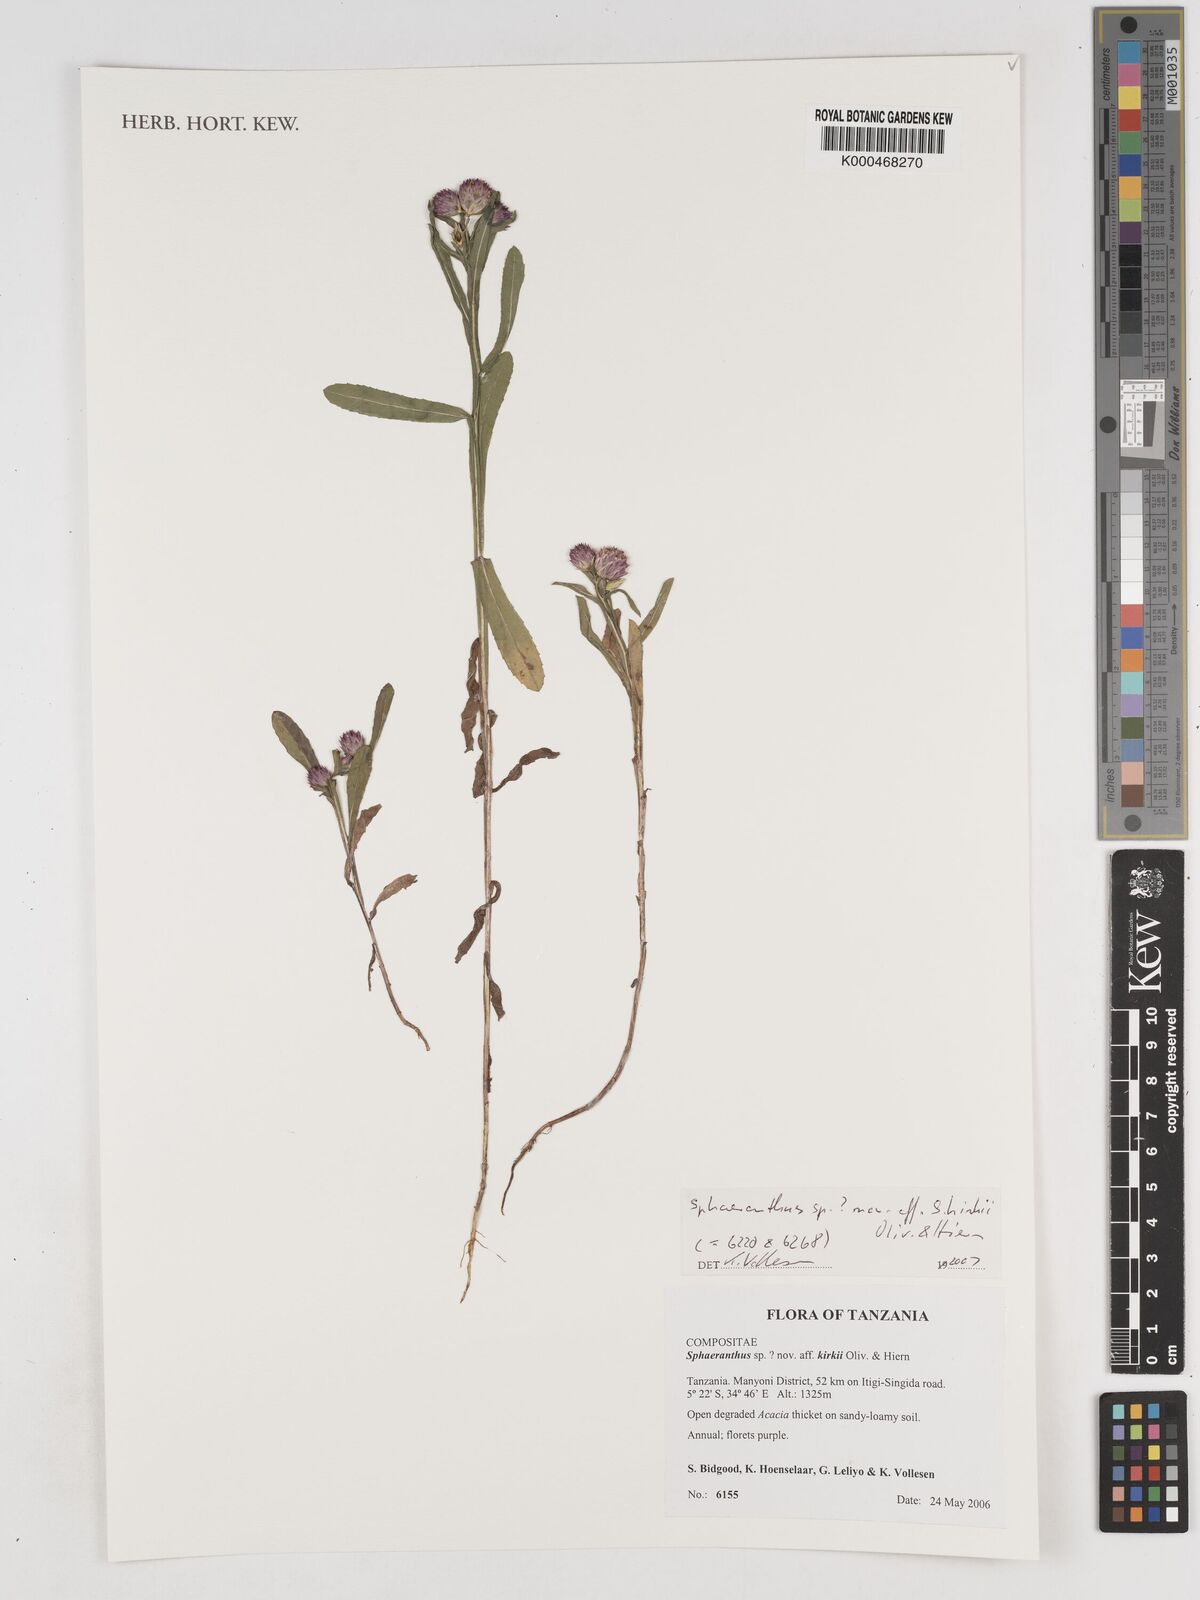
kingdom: Plantae
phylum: Tracheophyta
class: Magnoliopsida
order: Asterales
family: Asteraceae
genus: Sphaeranthus
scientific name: Sphaeranthus
